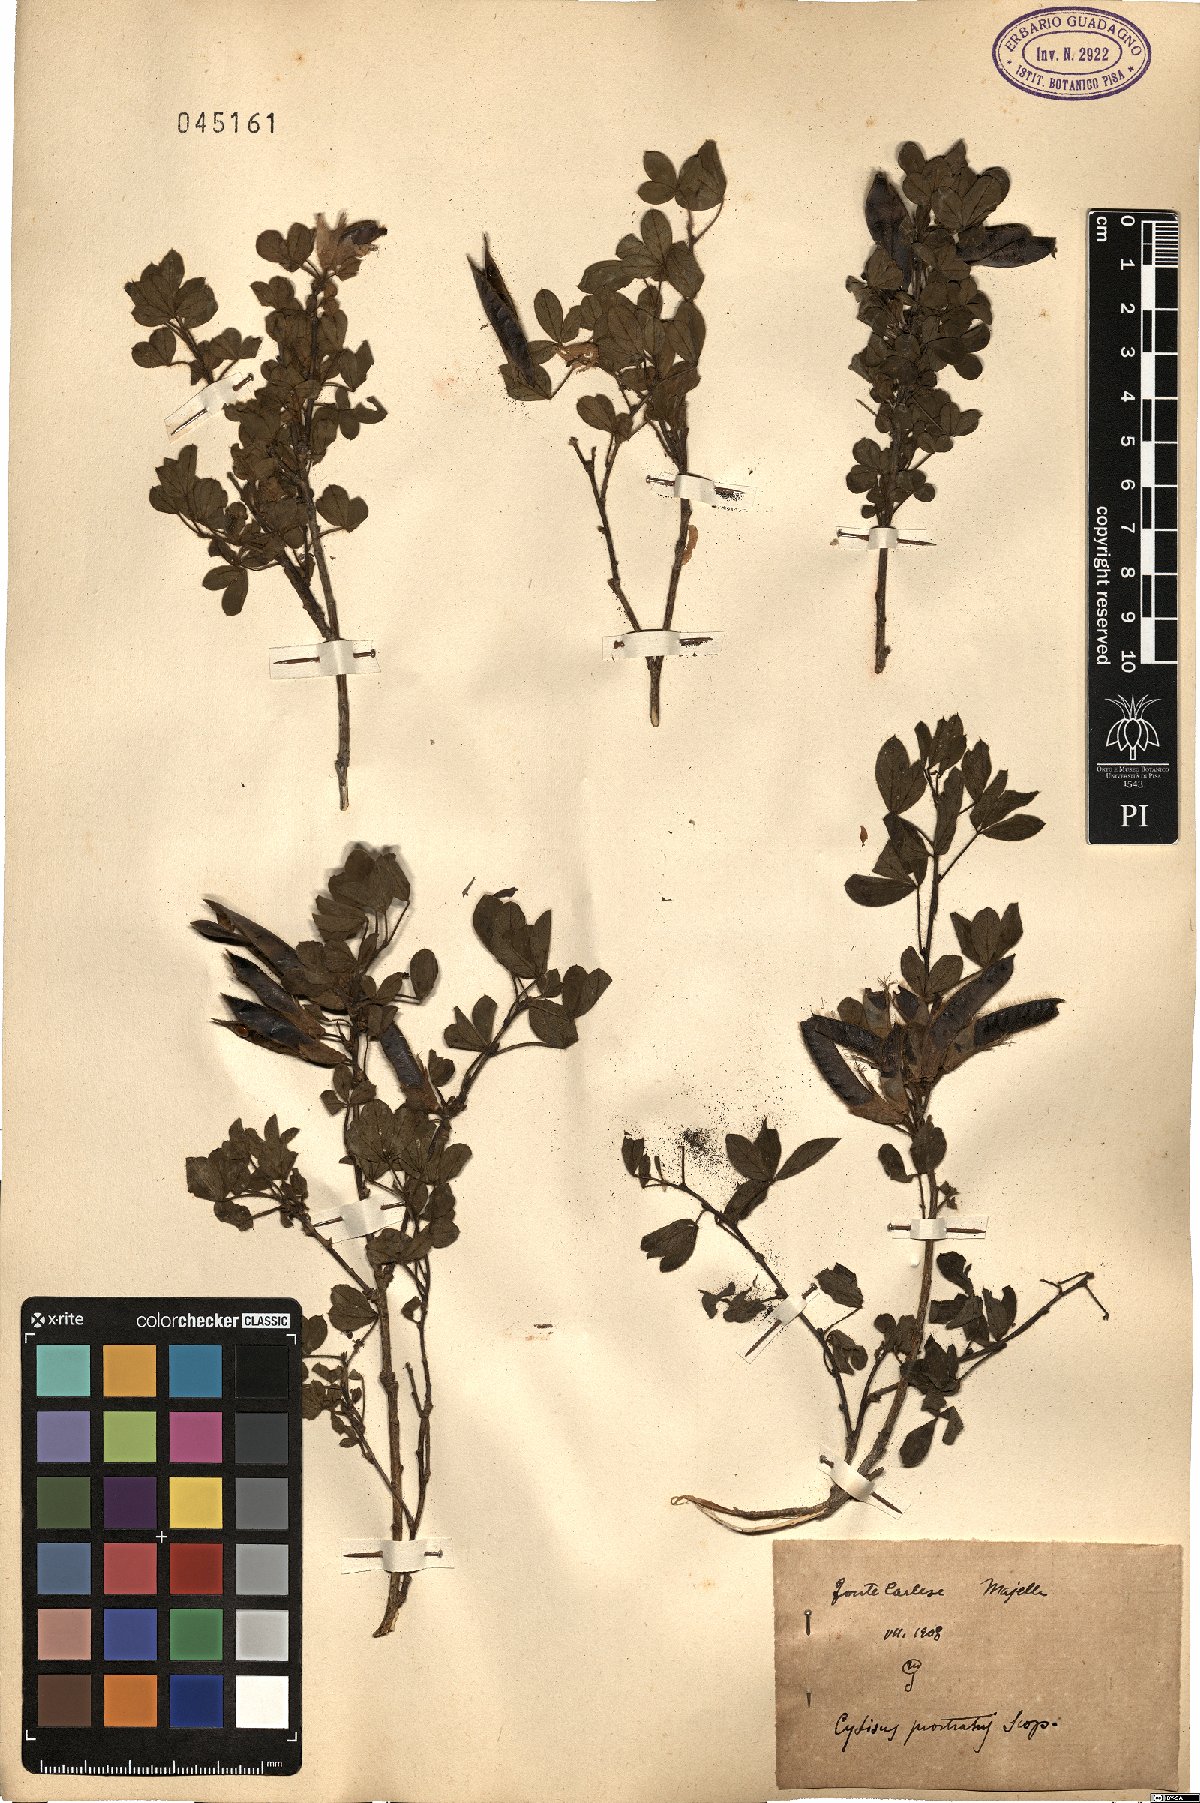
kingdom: Plantae
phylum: Tracheophyta
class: Magnoliopsida
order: Fabales
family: Fabaceae
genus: Cytisus
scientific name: Cytisus decumbens
